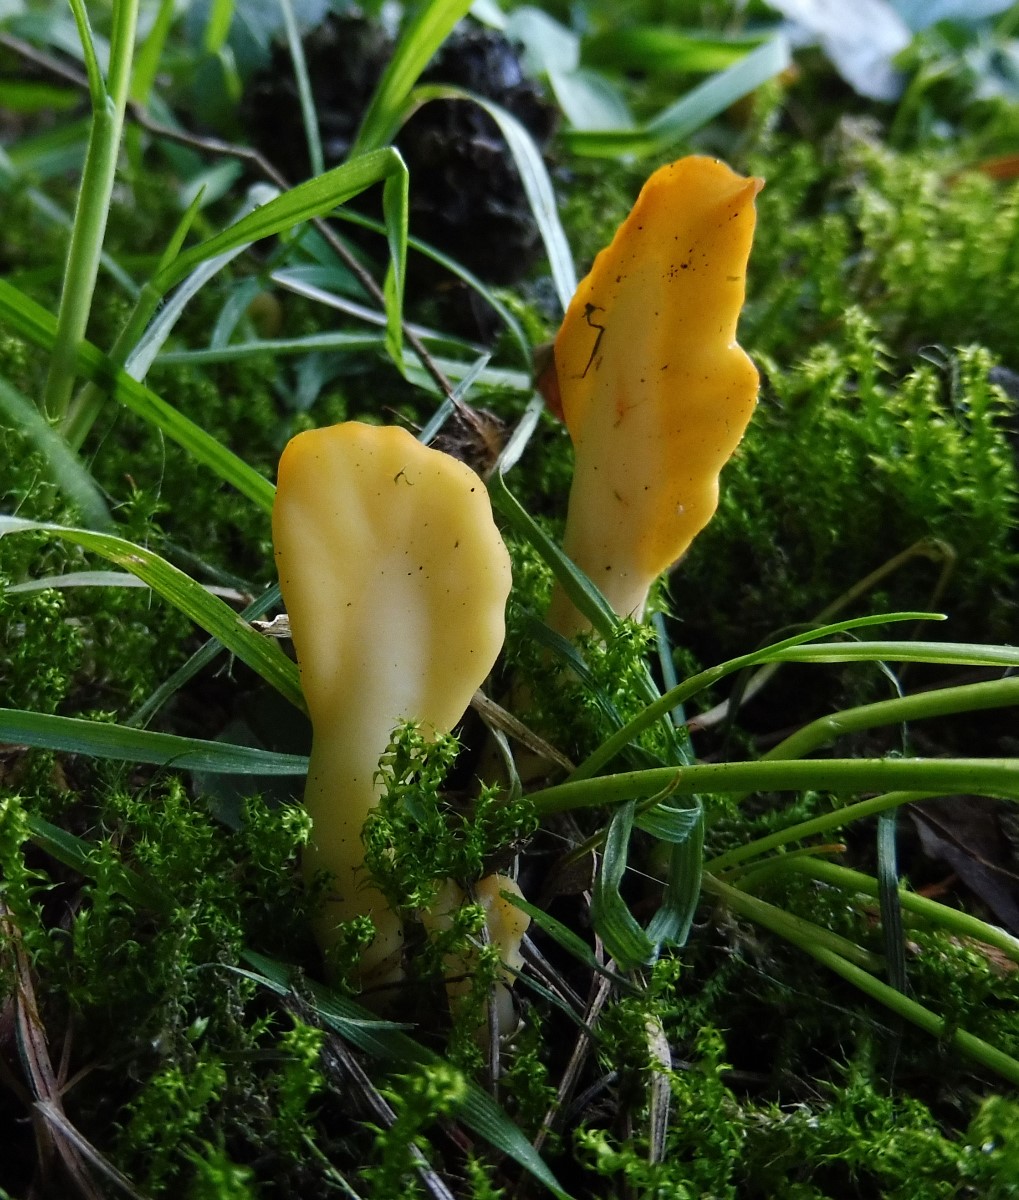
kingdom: Fungi
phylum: Ascomycota
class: Leotiomycetes
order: Rhytismatales
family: Cudoniaceae
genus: Spathularia
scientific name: Spathularia flavida
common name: gul spatelsvamp
